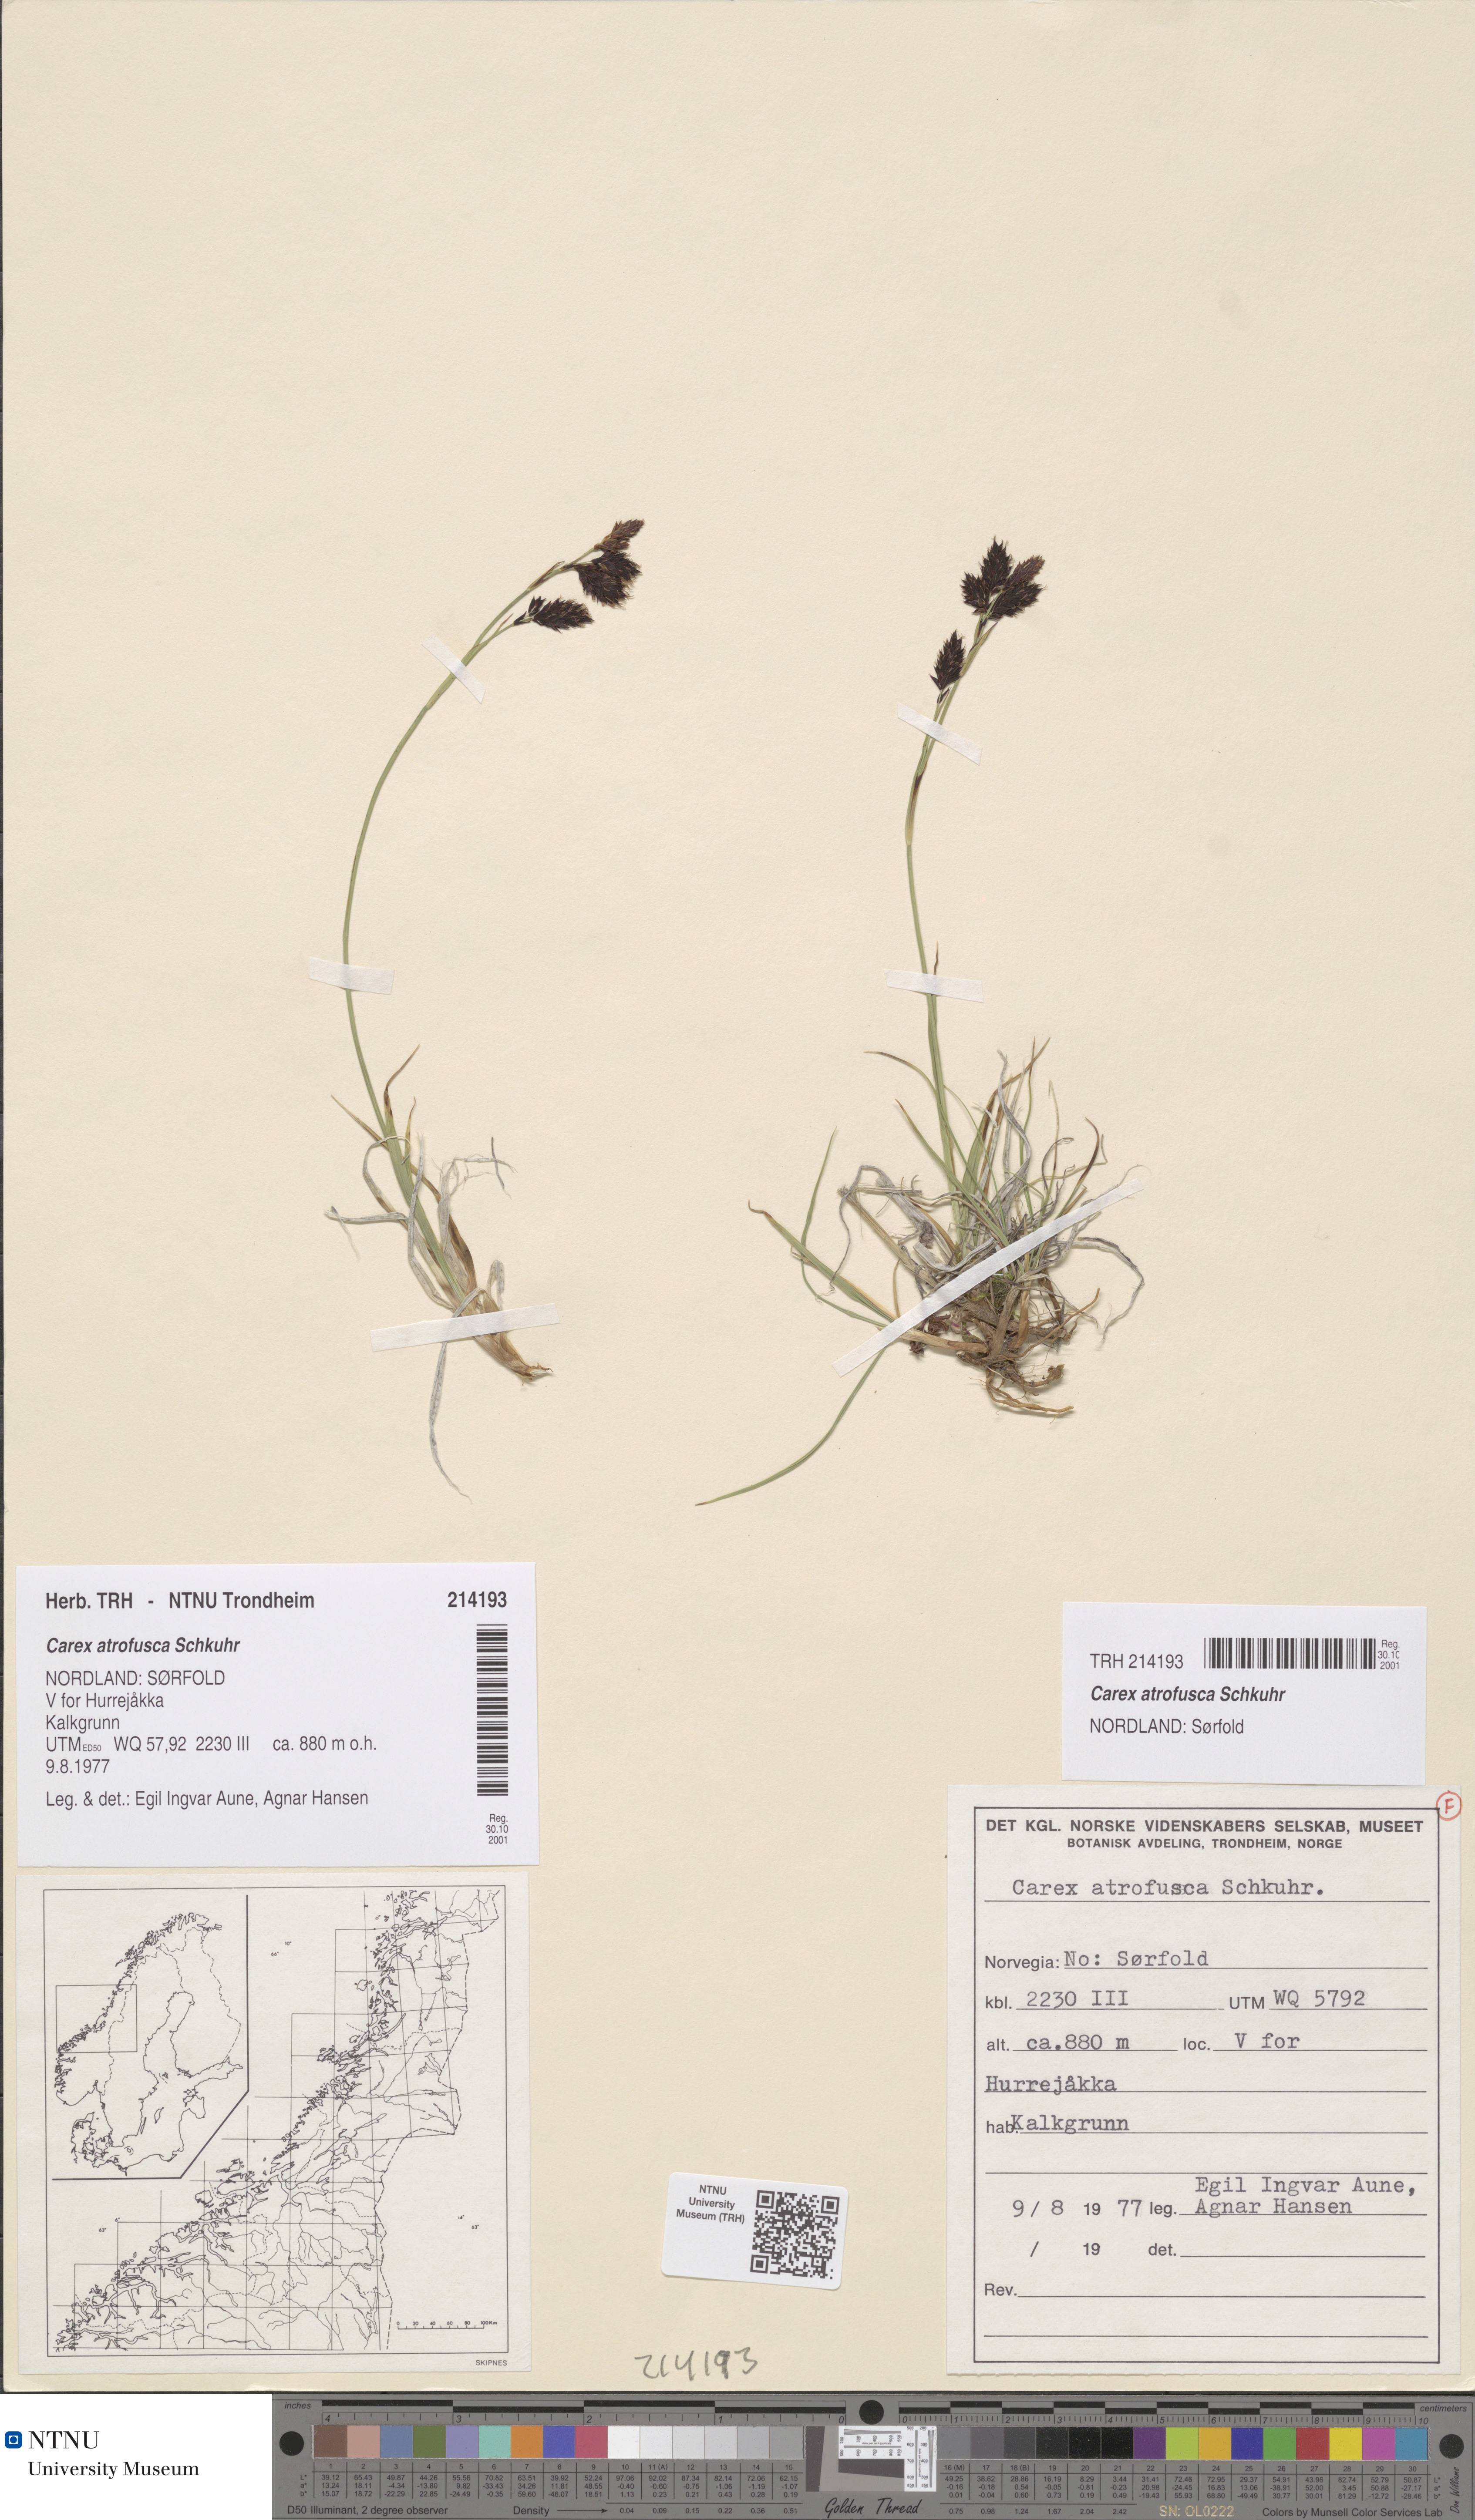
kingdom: Plantae
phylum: Tracheophyta
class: Liliopsida
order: Poales
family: Cyperaceae
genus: Carex
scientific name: Carex atrofusca
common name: Scorched alpine-sedge
